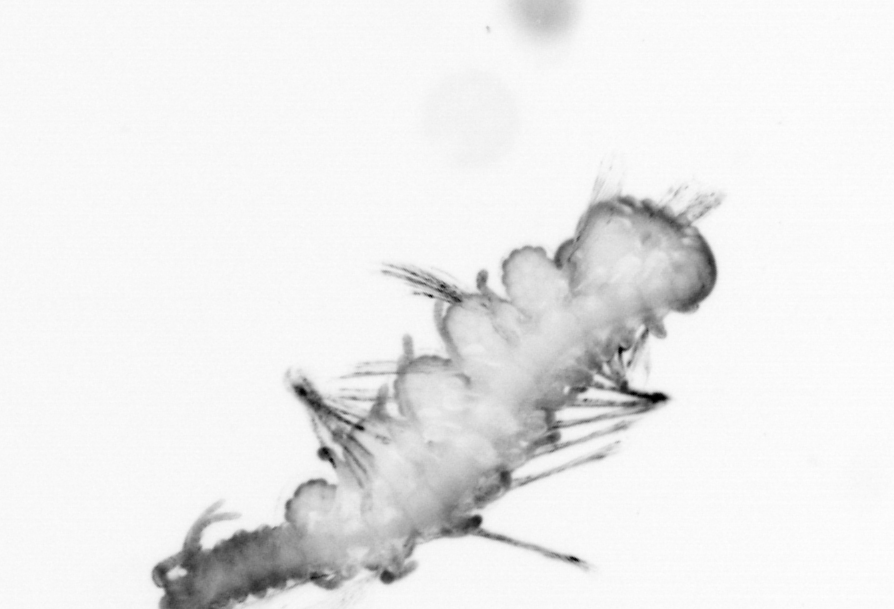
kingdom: Animalia
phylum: Annelida
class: Polychaeta
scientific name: Polychaeta
